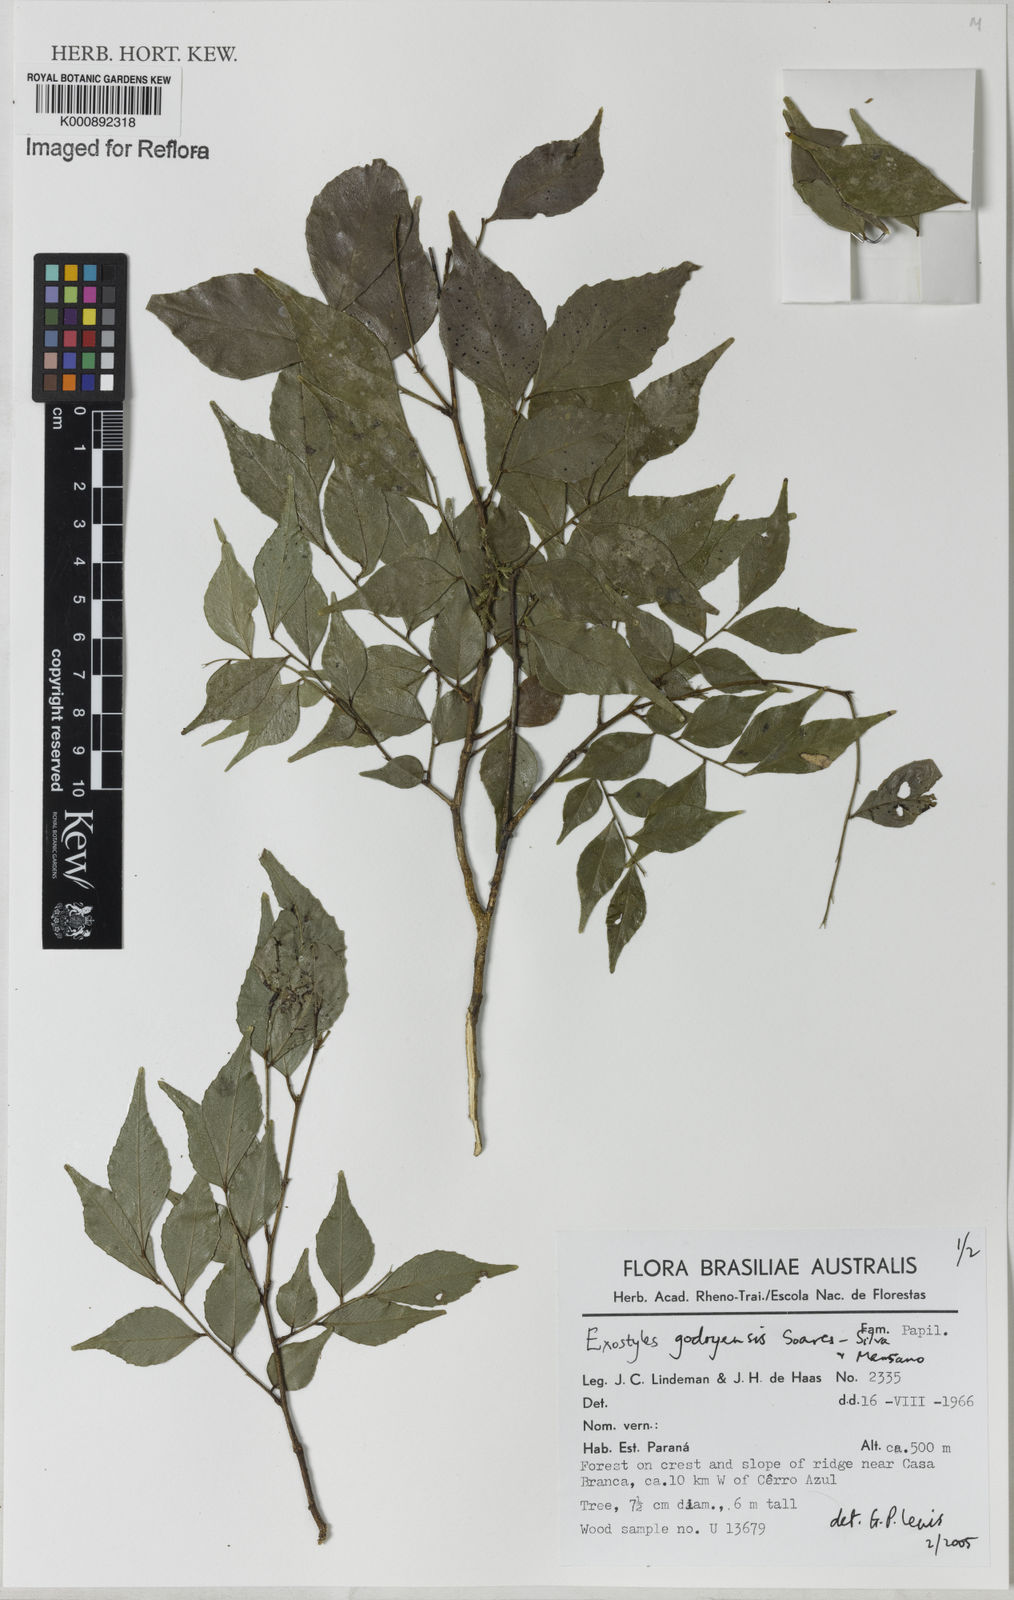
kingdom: Plantae
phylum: Tracheophyta
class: Magnoliopsida
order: Fabales
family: Fabaceae
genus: Exostyles
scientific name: Exostyles godoyensis
